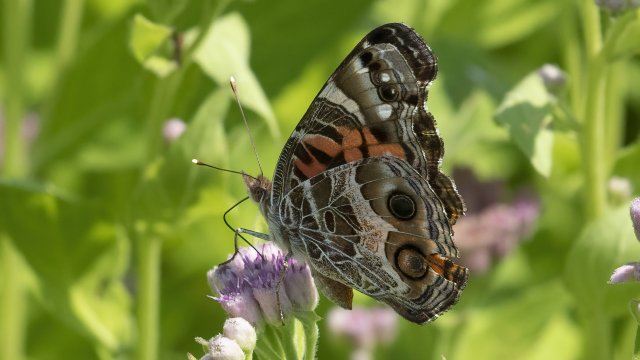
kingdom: Animalia
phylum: Arthropoda
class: Insecta
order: Lepidoptera
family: Nymphalidae
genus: Vanessa
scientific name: Vanessa virginiensis
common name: American Lady
